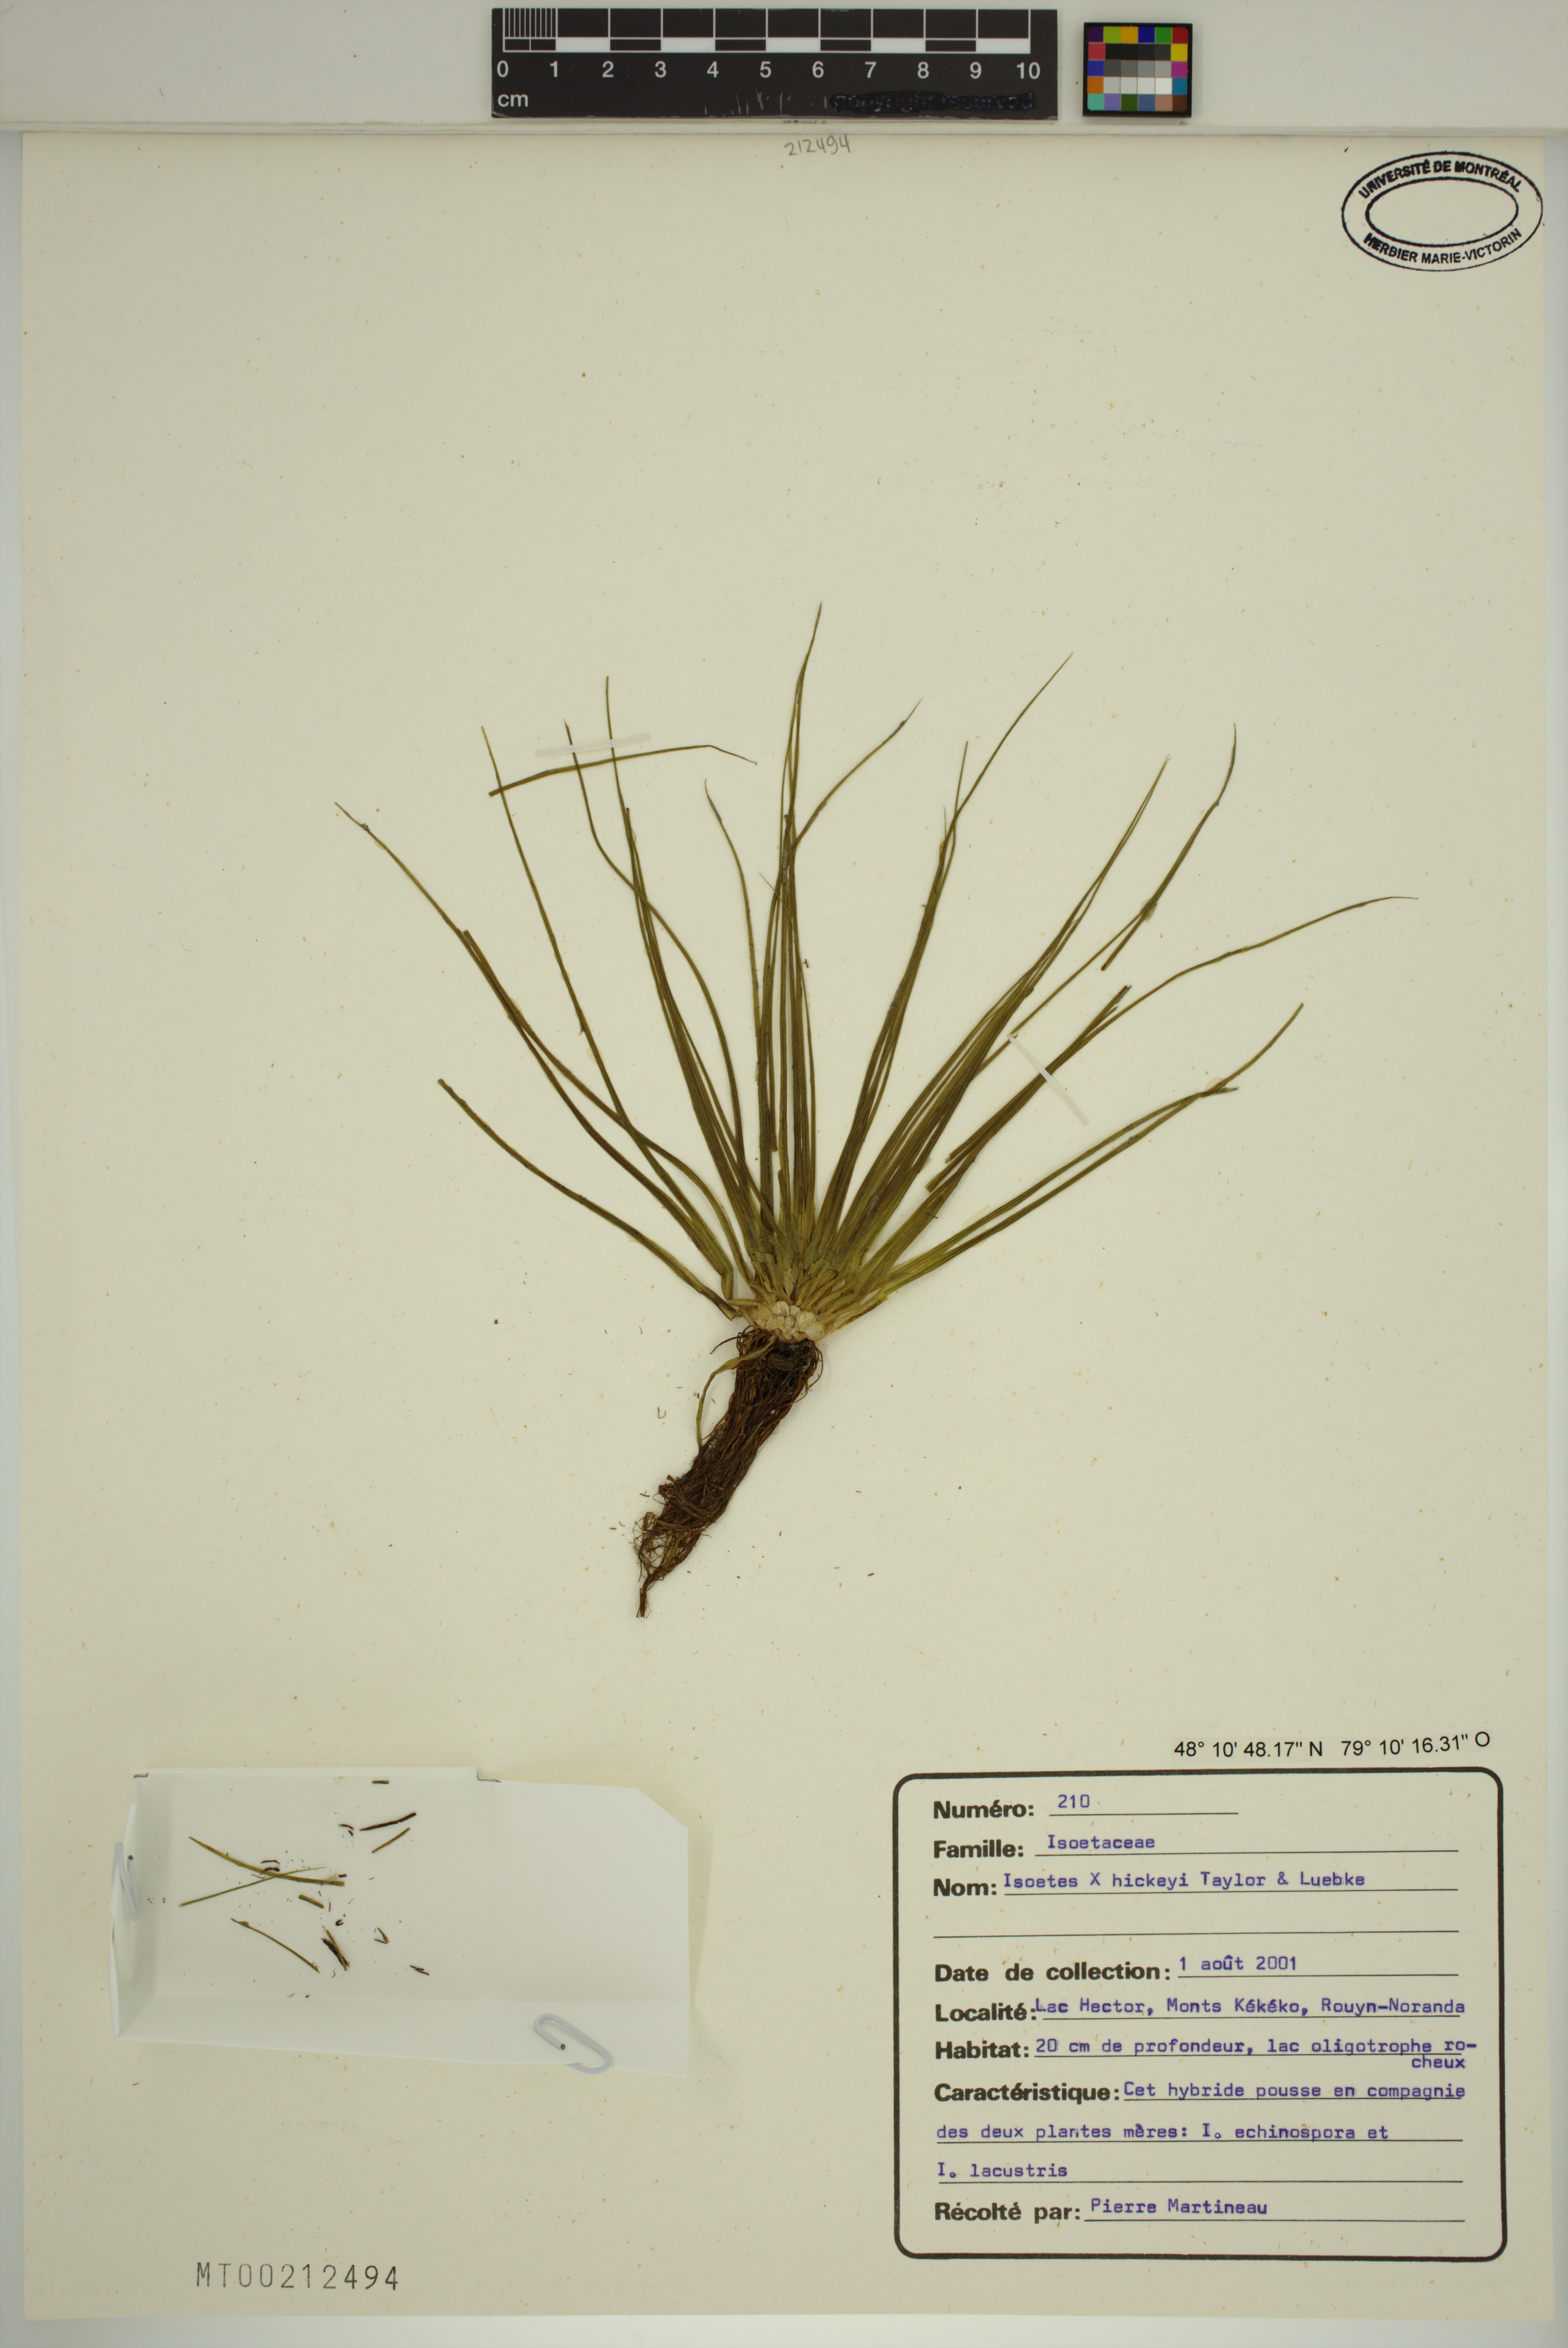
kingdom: Plantae
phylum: Tracheophyta
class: Lycopodiopsida
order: Isoetales
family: Isoetaceae
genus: Isoetes
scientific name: Isoetes echinospora
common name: Spring quillwort
